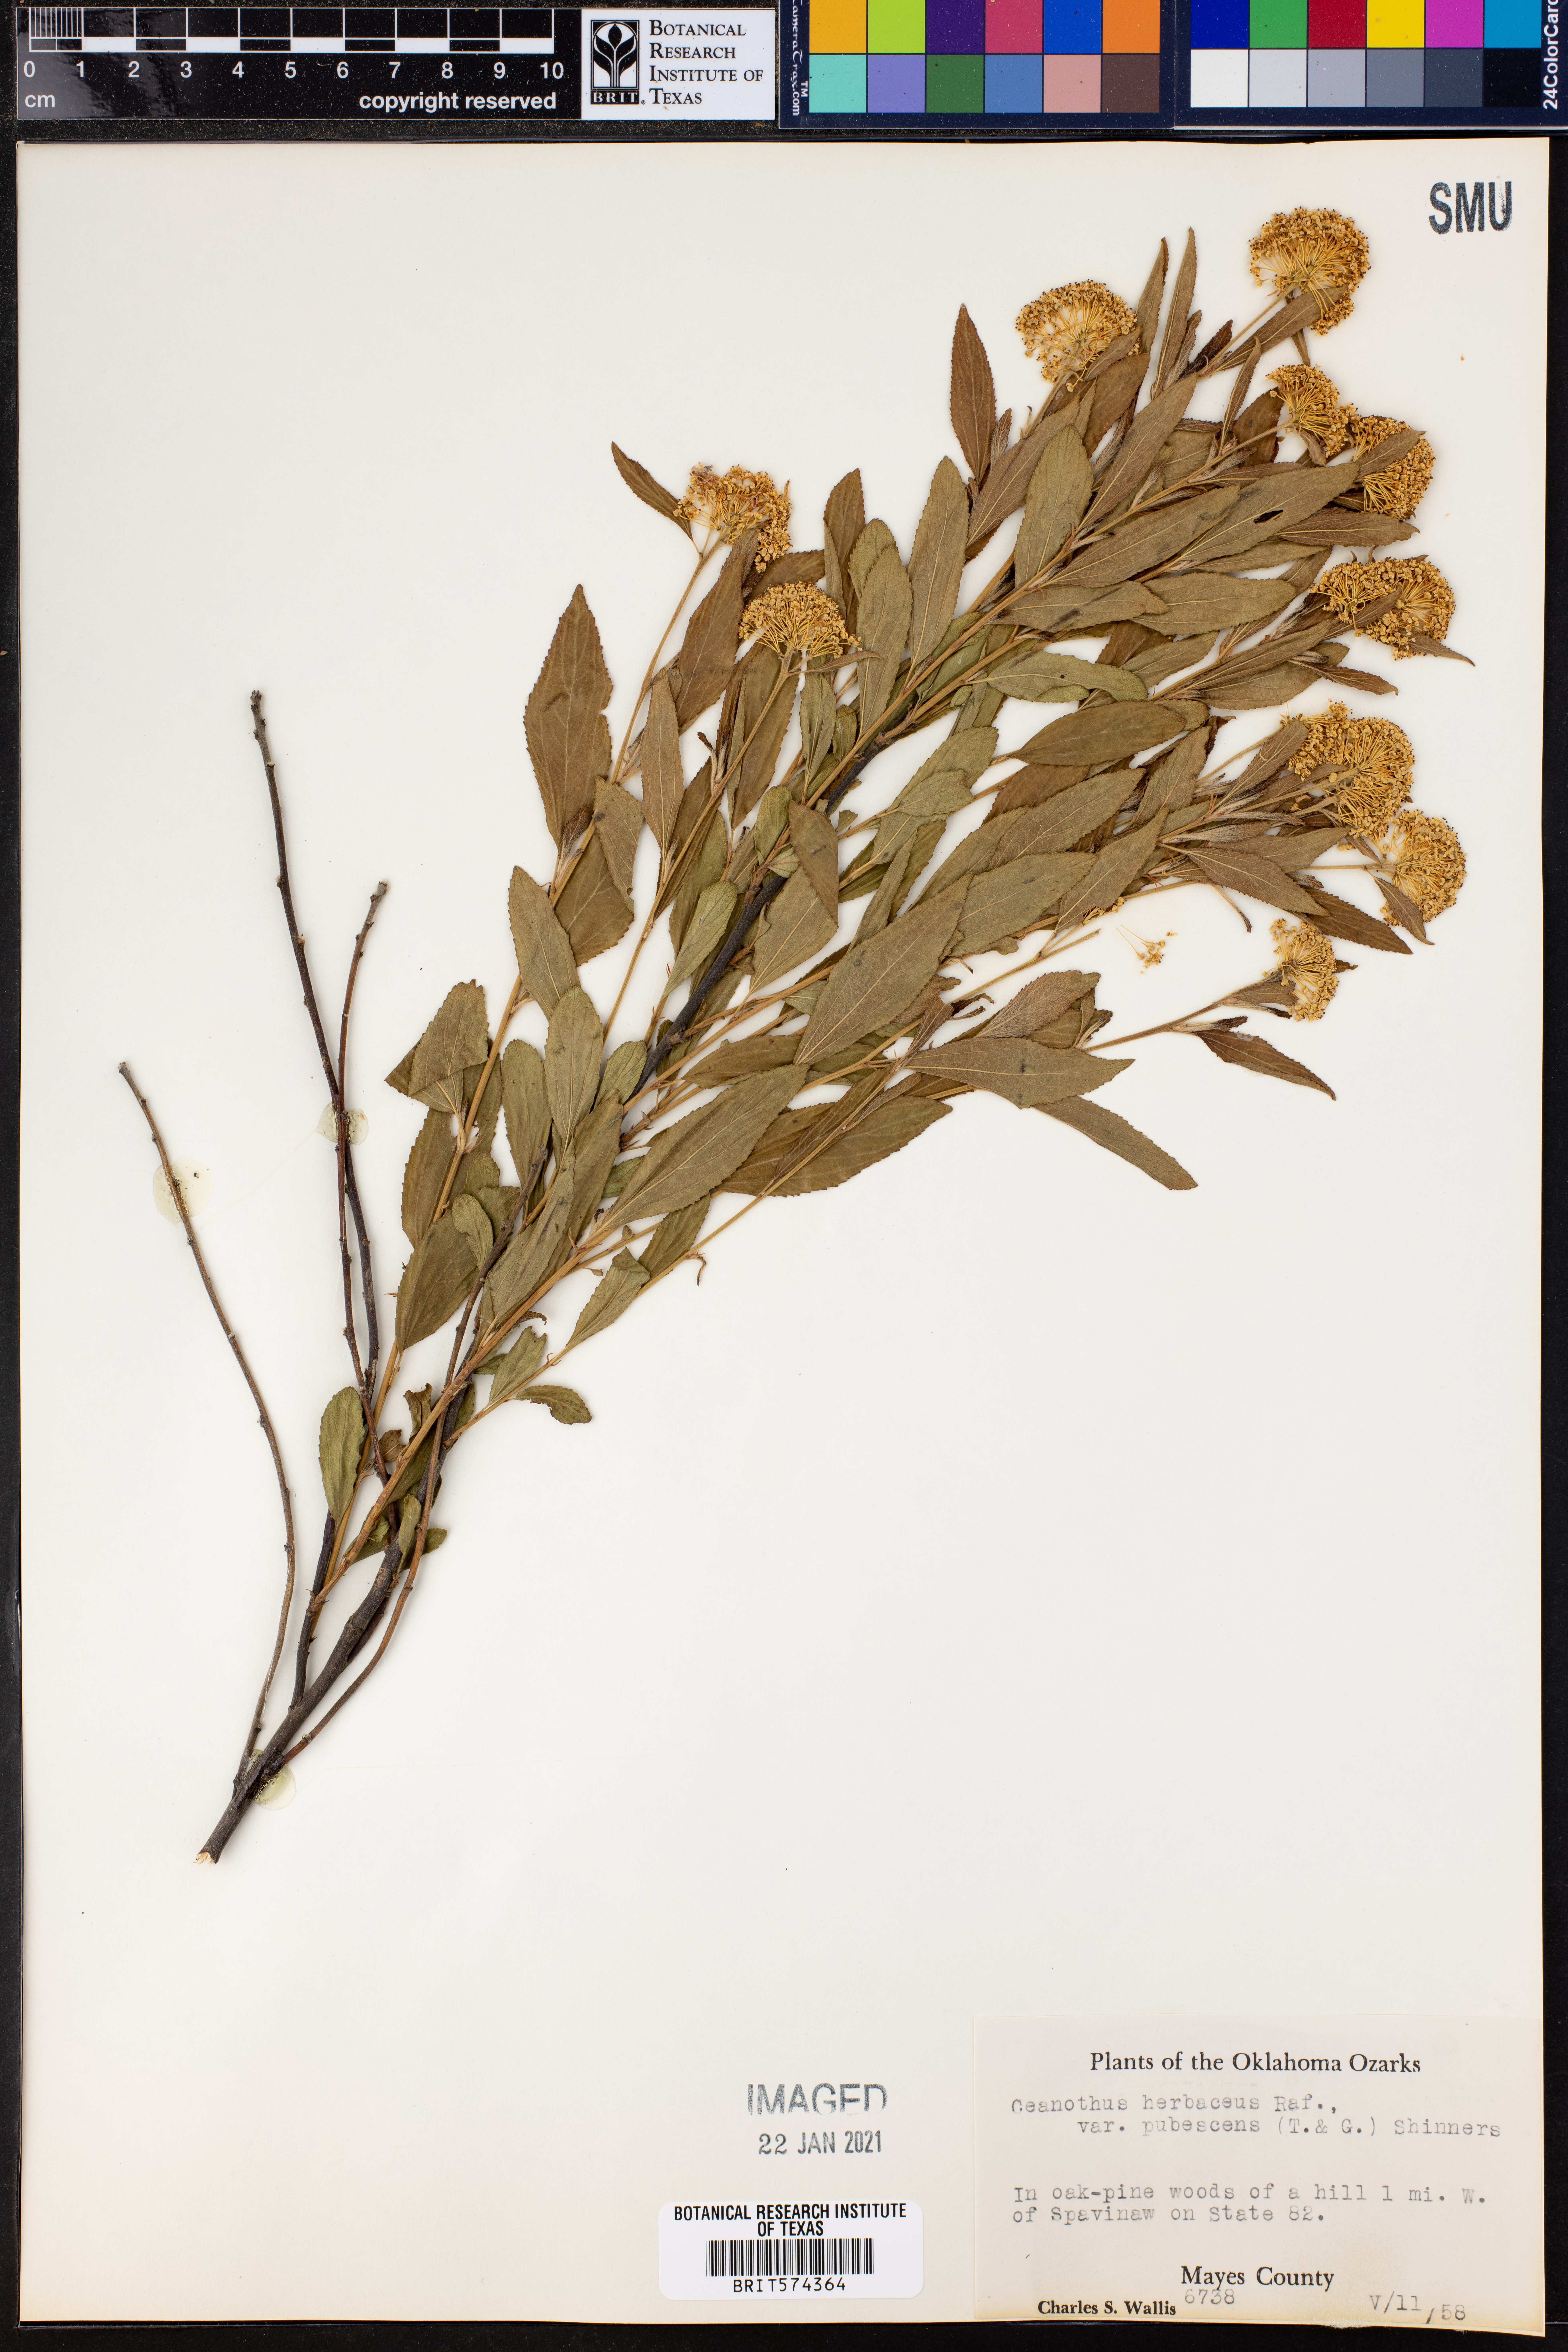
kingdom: Plantae
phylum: Tracheophyta
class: Magnoliopsida
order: Rosales
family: Rhamnaceae
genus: Ceanothus
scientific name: Ceanothus herbaceus
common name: Inland ceanothus
